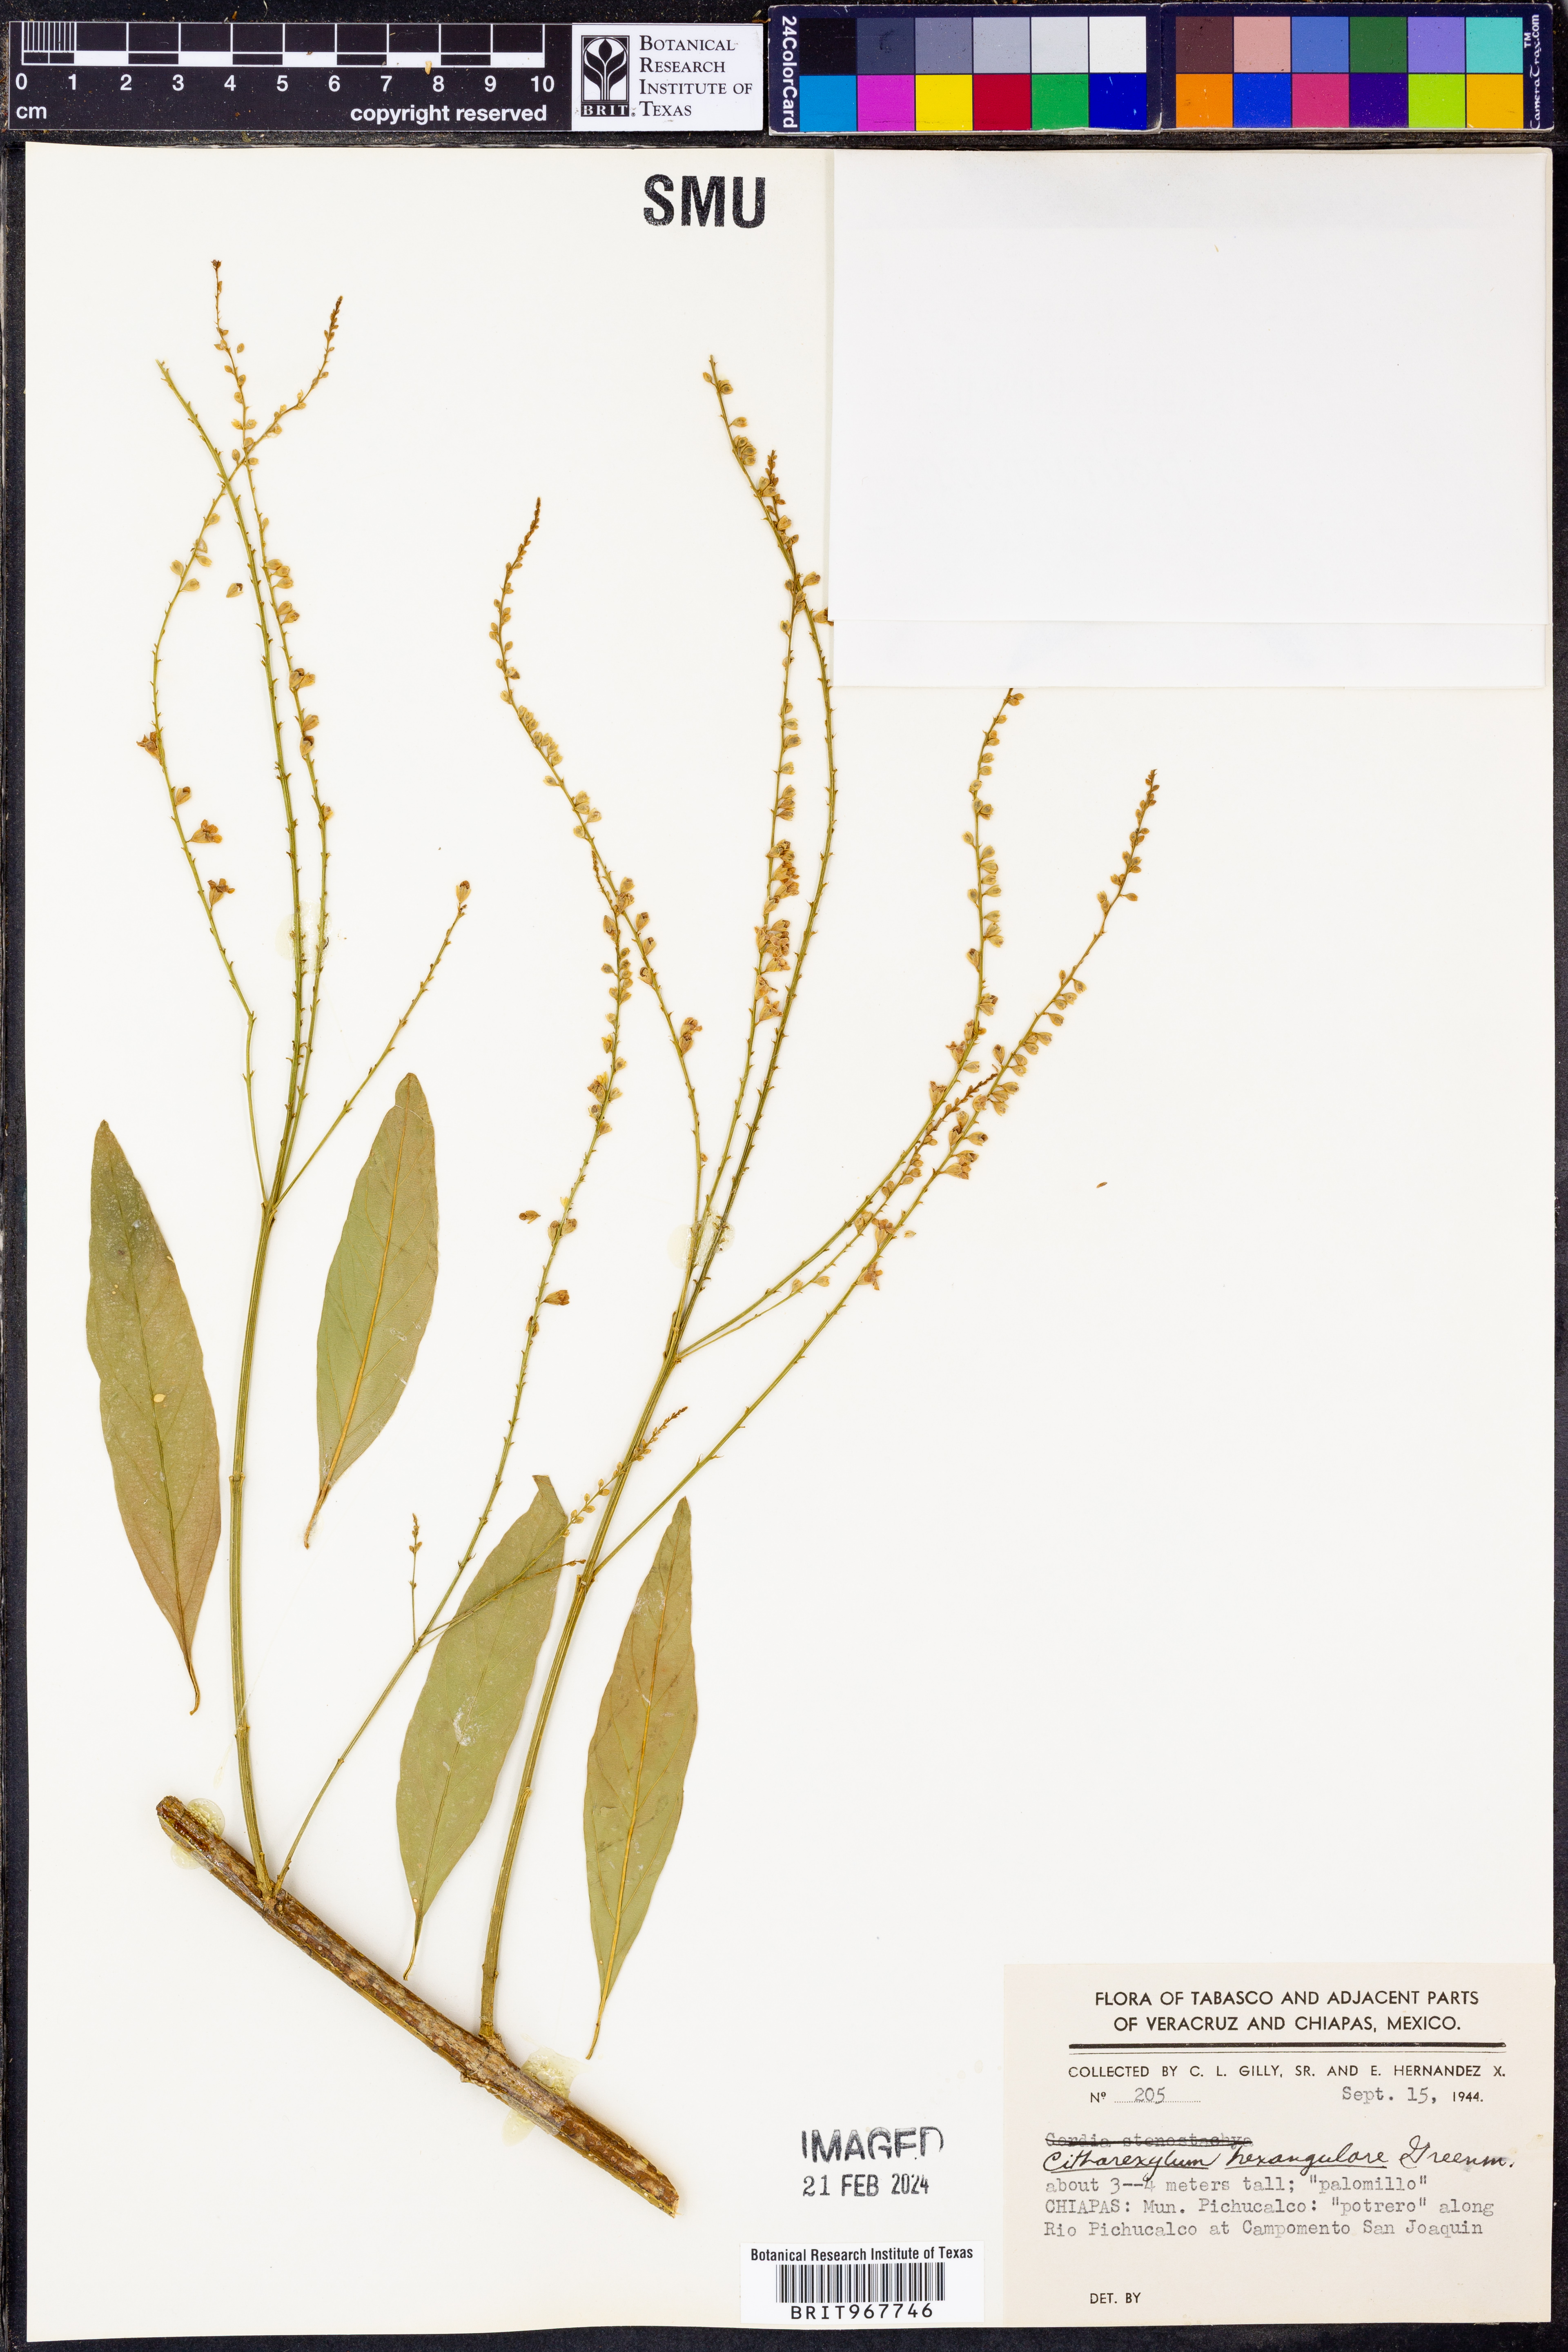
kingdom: Plantae
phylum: Tracheophyta
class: Magnoliopsida
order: Lamiales
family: Verbenaceae
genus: Citharexylum
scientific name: Citharexylum
